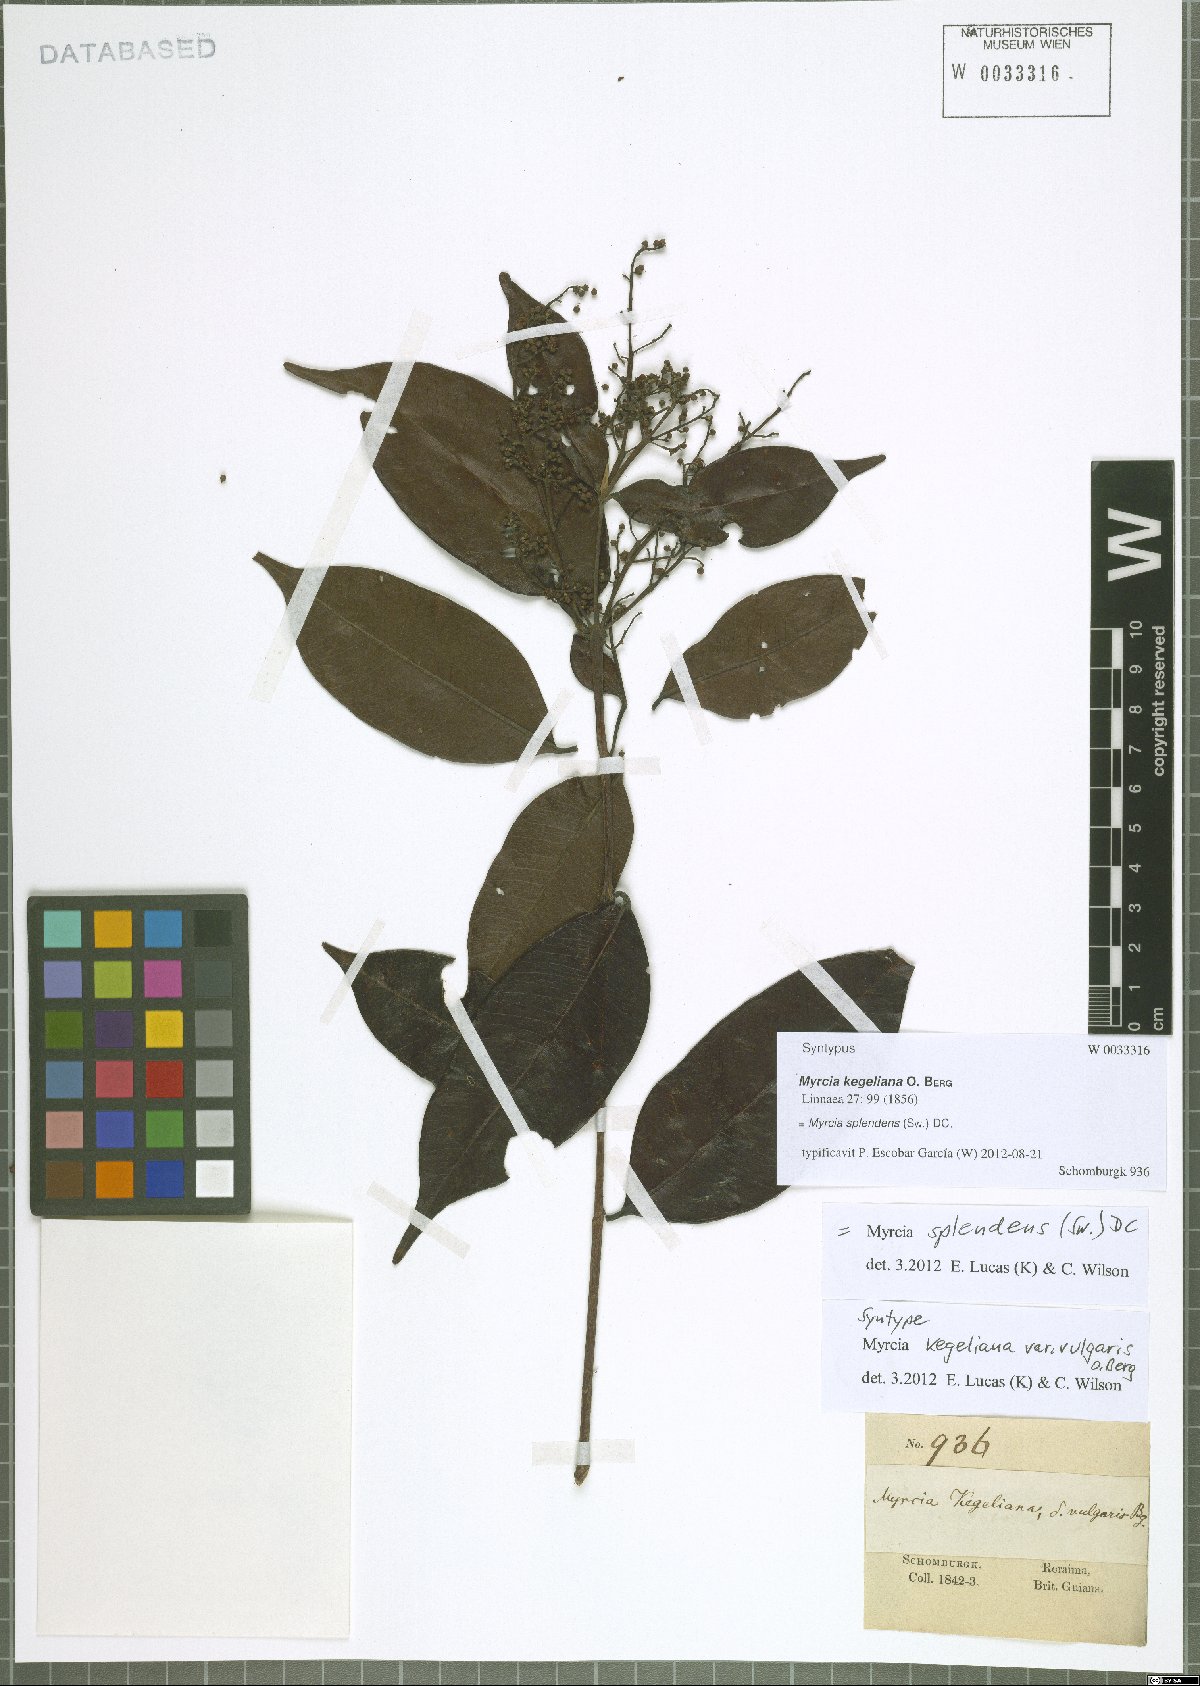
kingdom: Plantae
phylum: Tracheophyta
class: Magnoliopsida
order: Myrtales
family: Myrtaceae
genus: Myrcia
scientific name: Myrcia splendens
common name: Surinam cherry
